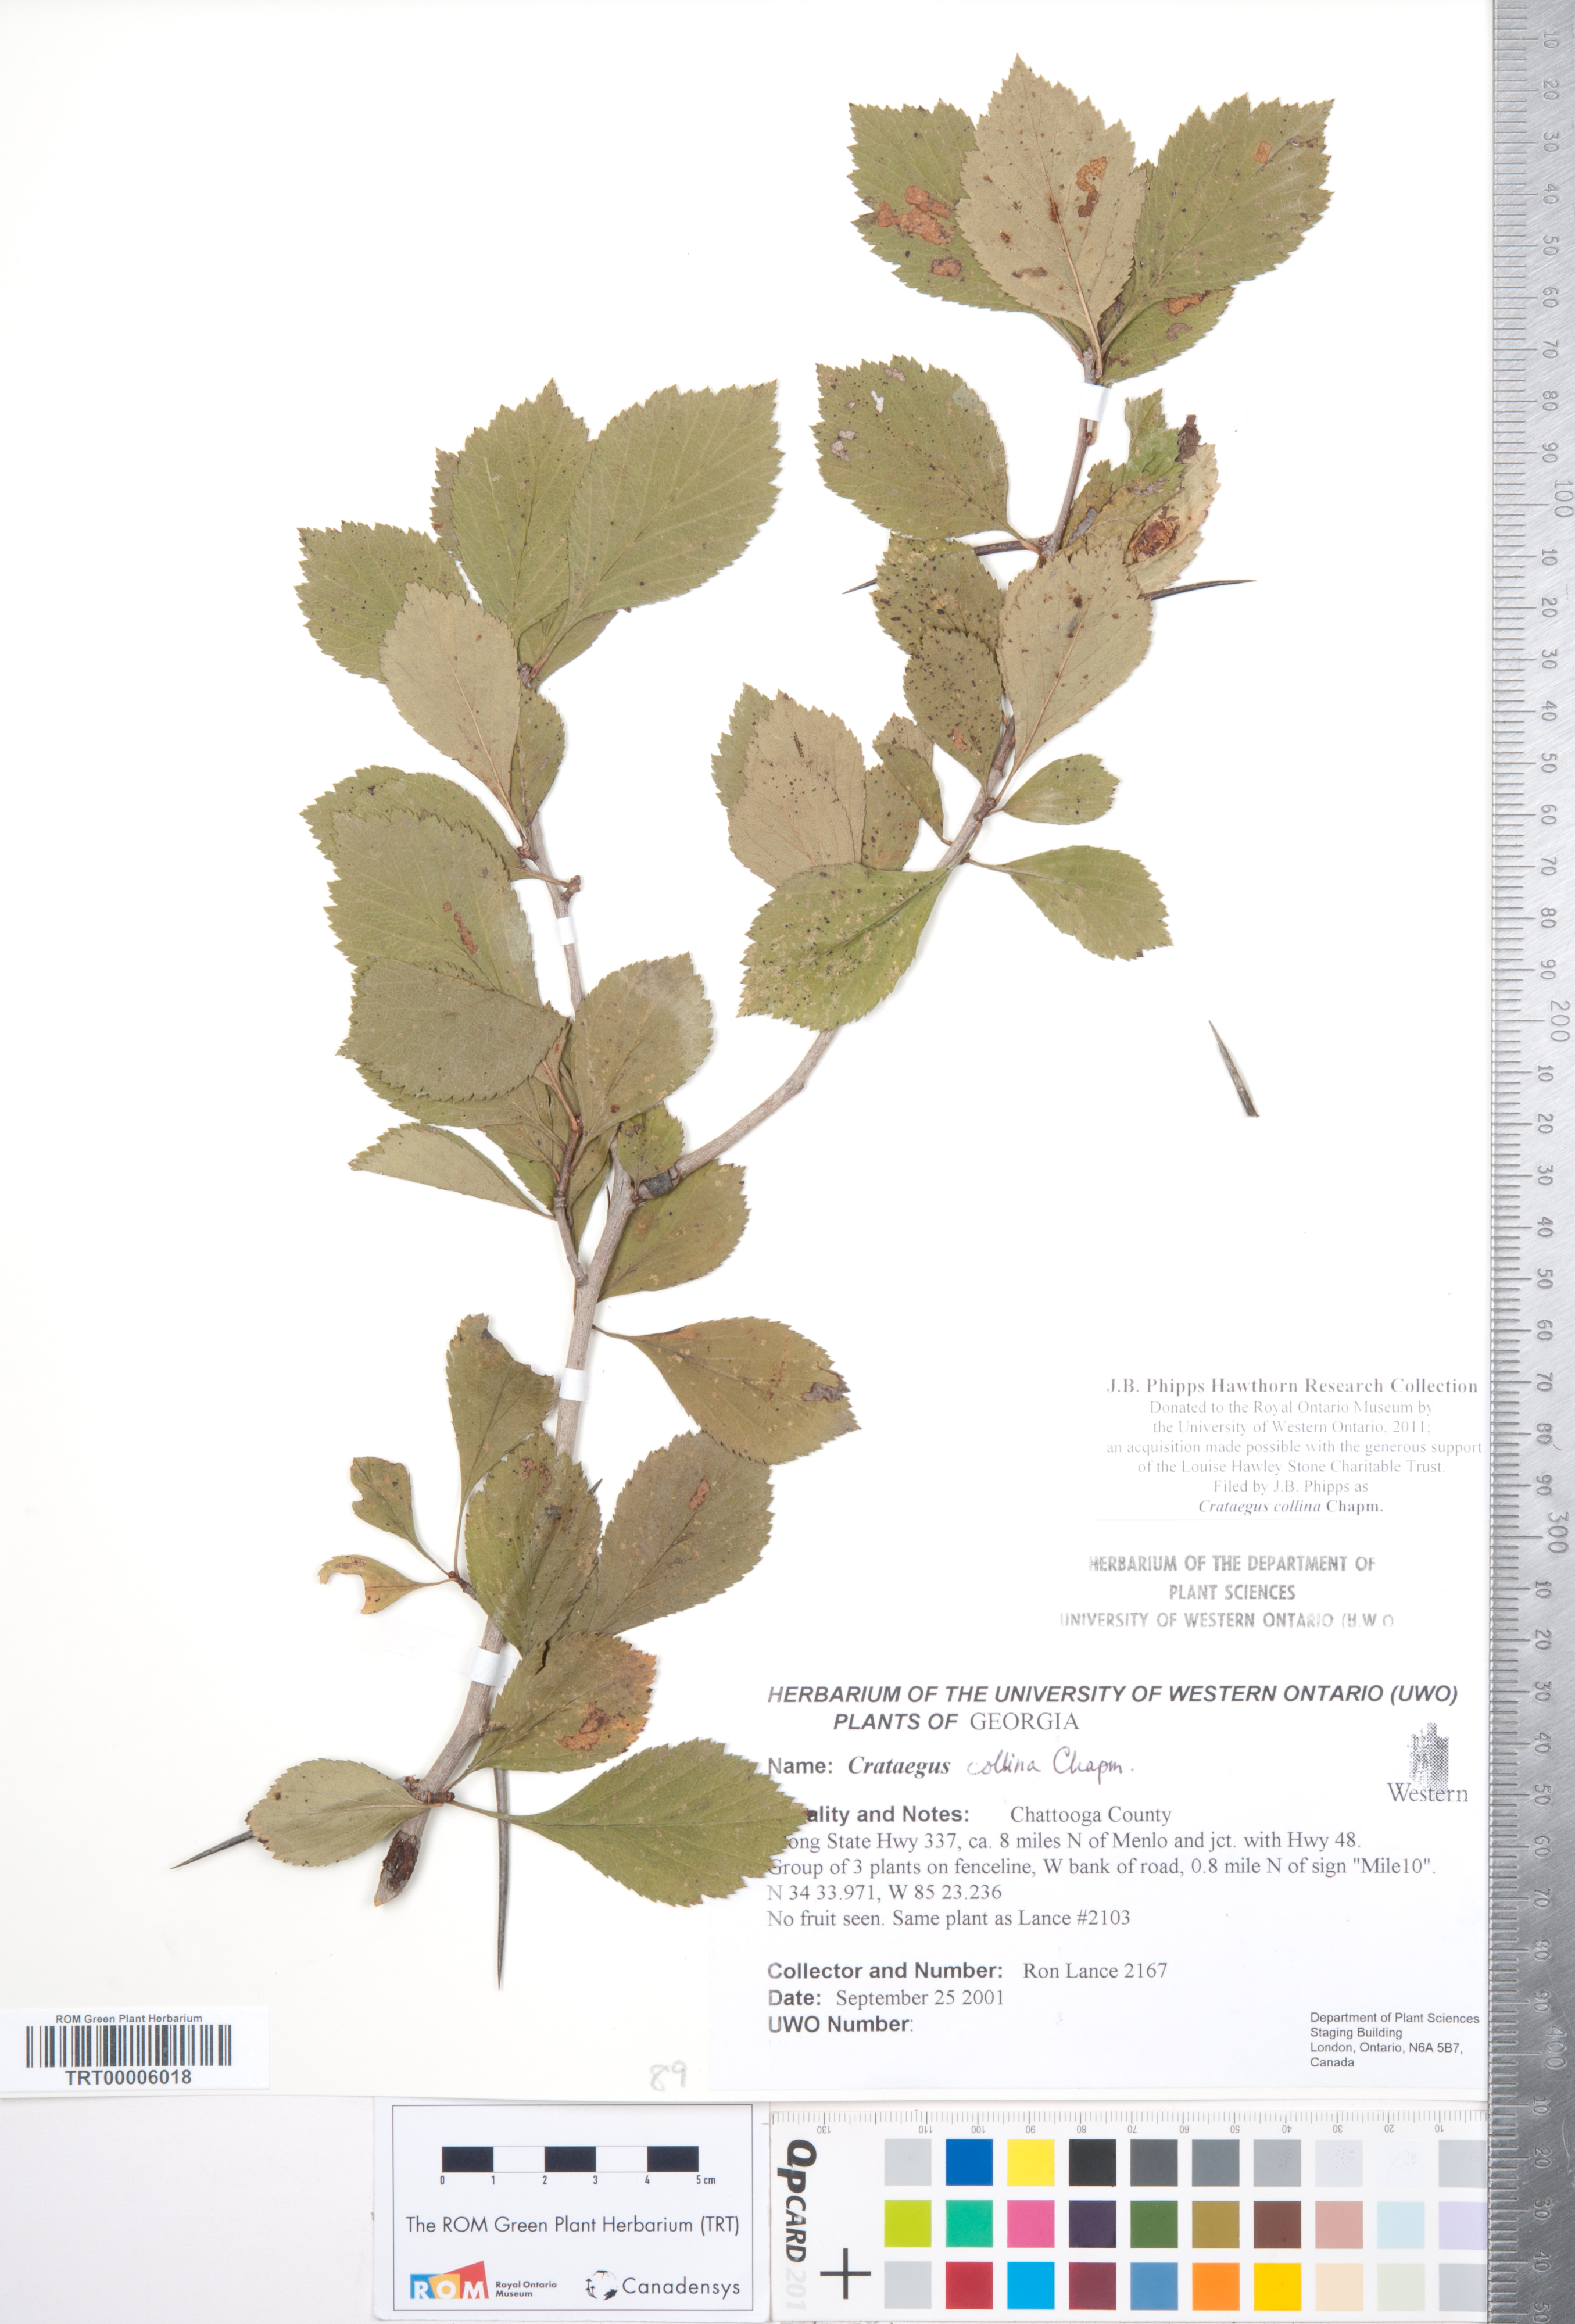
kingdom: Plantae
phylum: Tracheophyta
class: Magnoliopsida
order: Rosales
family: Rosaceae
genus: Crataegus
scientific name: Crataegus collina
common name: Hillside hawthorn
